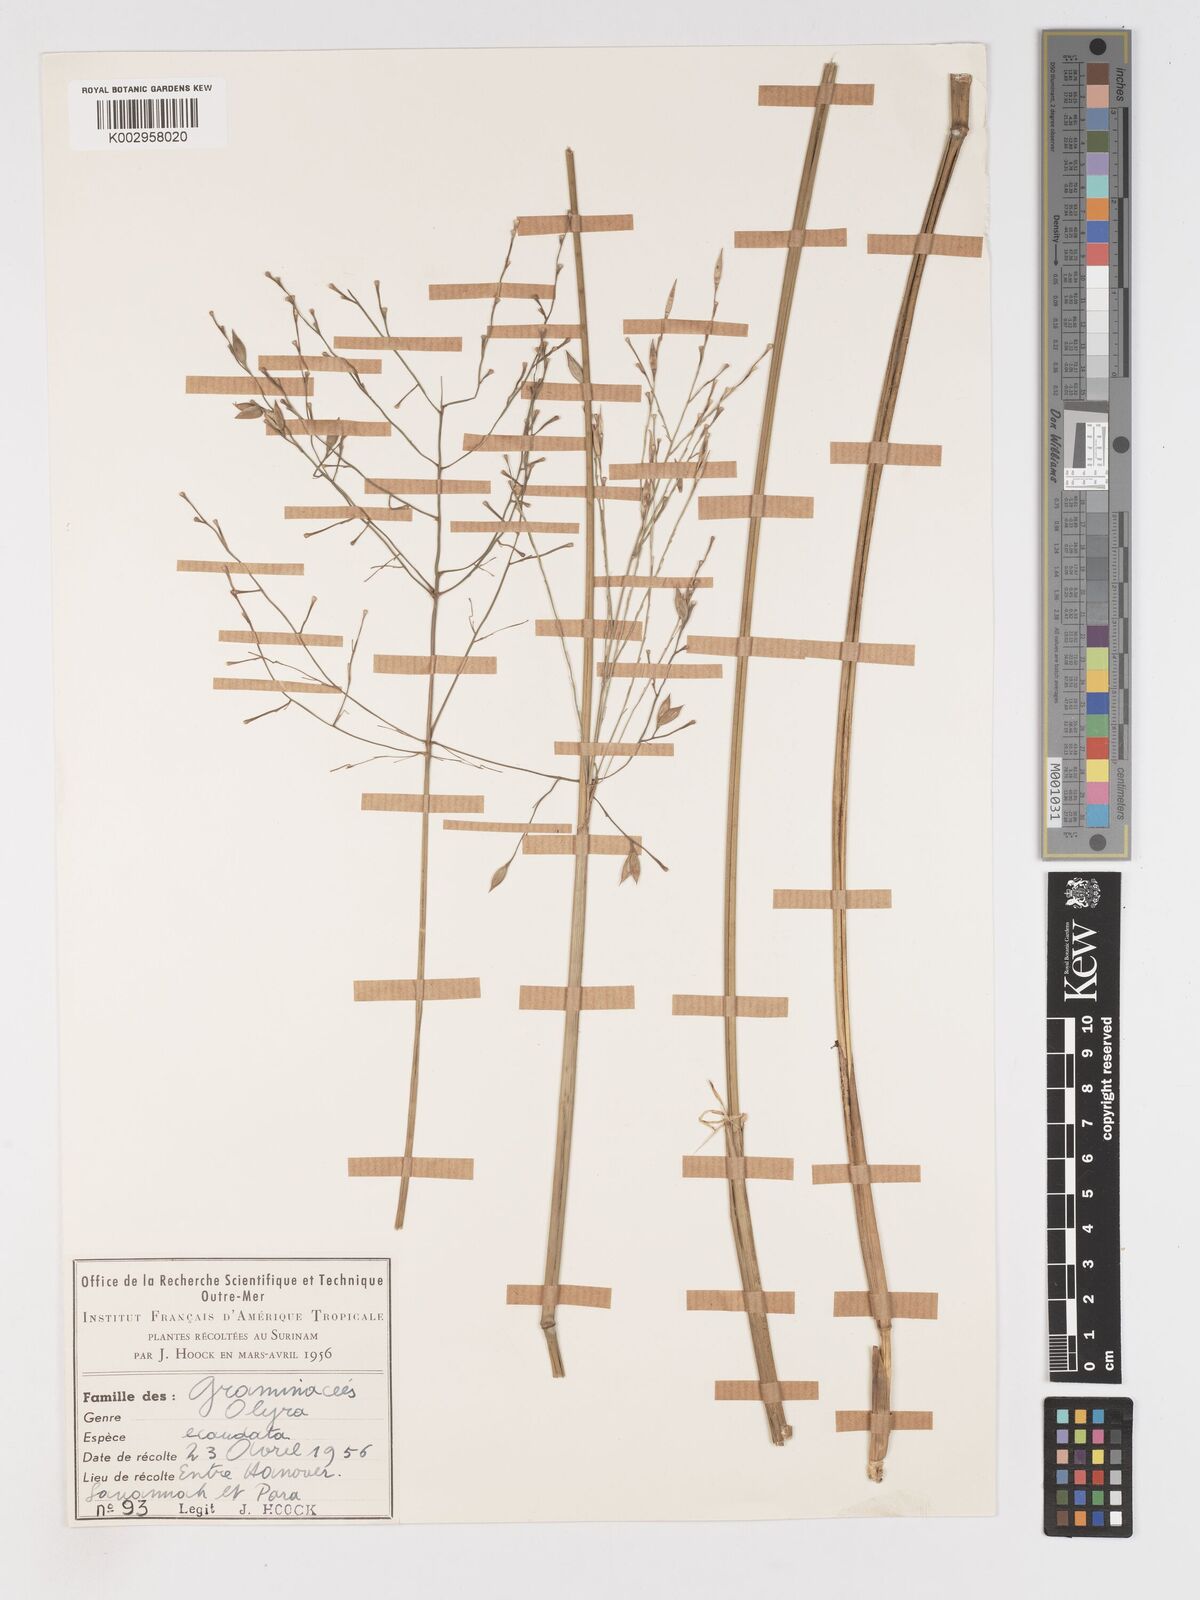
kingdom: Plantae
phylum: Tracheophyta
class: Liliopsida
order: Poales
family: Poaceae
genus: Olyra
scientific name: Olyra ecaudata
